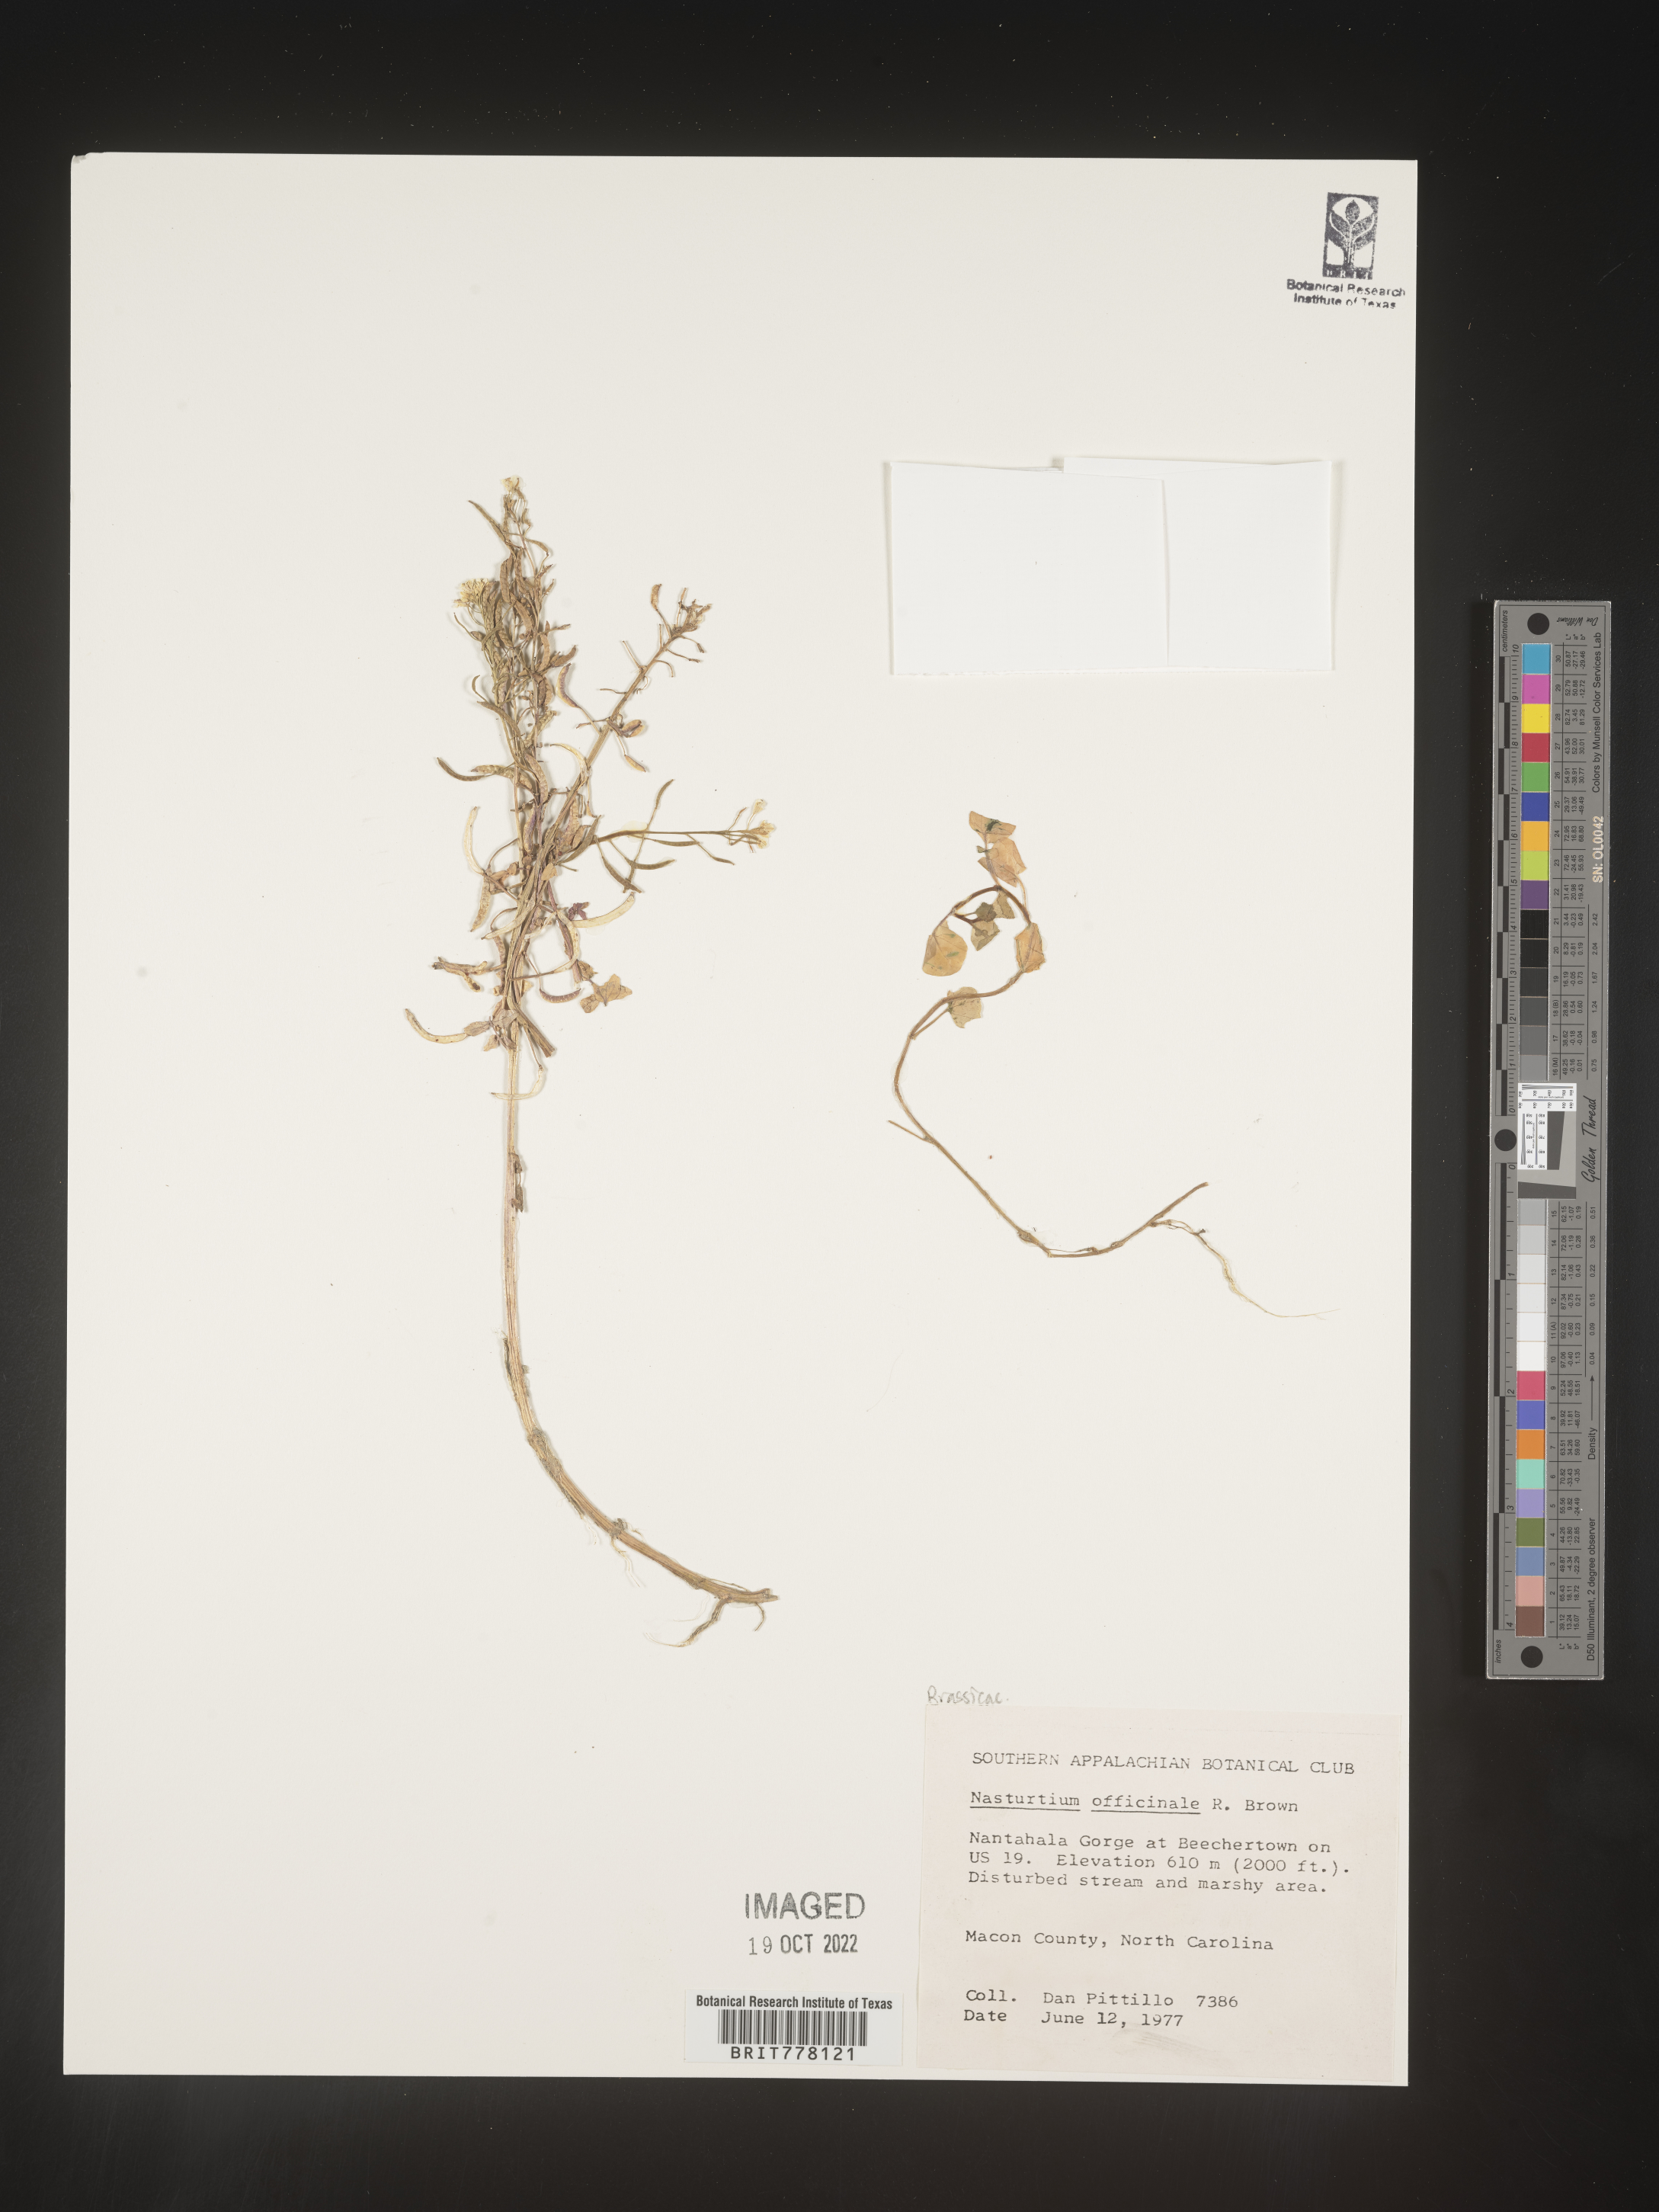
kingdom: Plantae
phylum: Tracheophyta
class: Magnoliopsida
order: Brassicales
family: Brassicaceae
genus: Nasturtium
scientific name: Nasturtium
